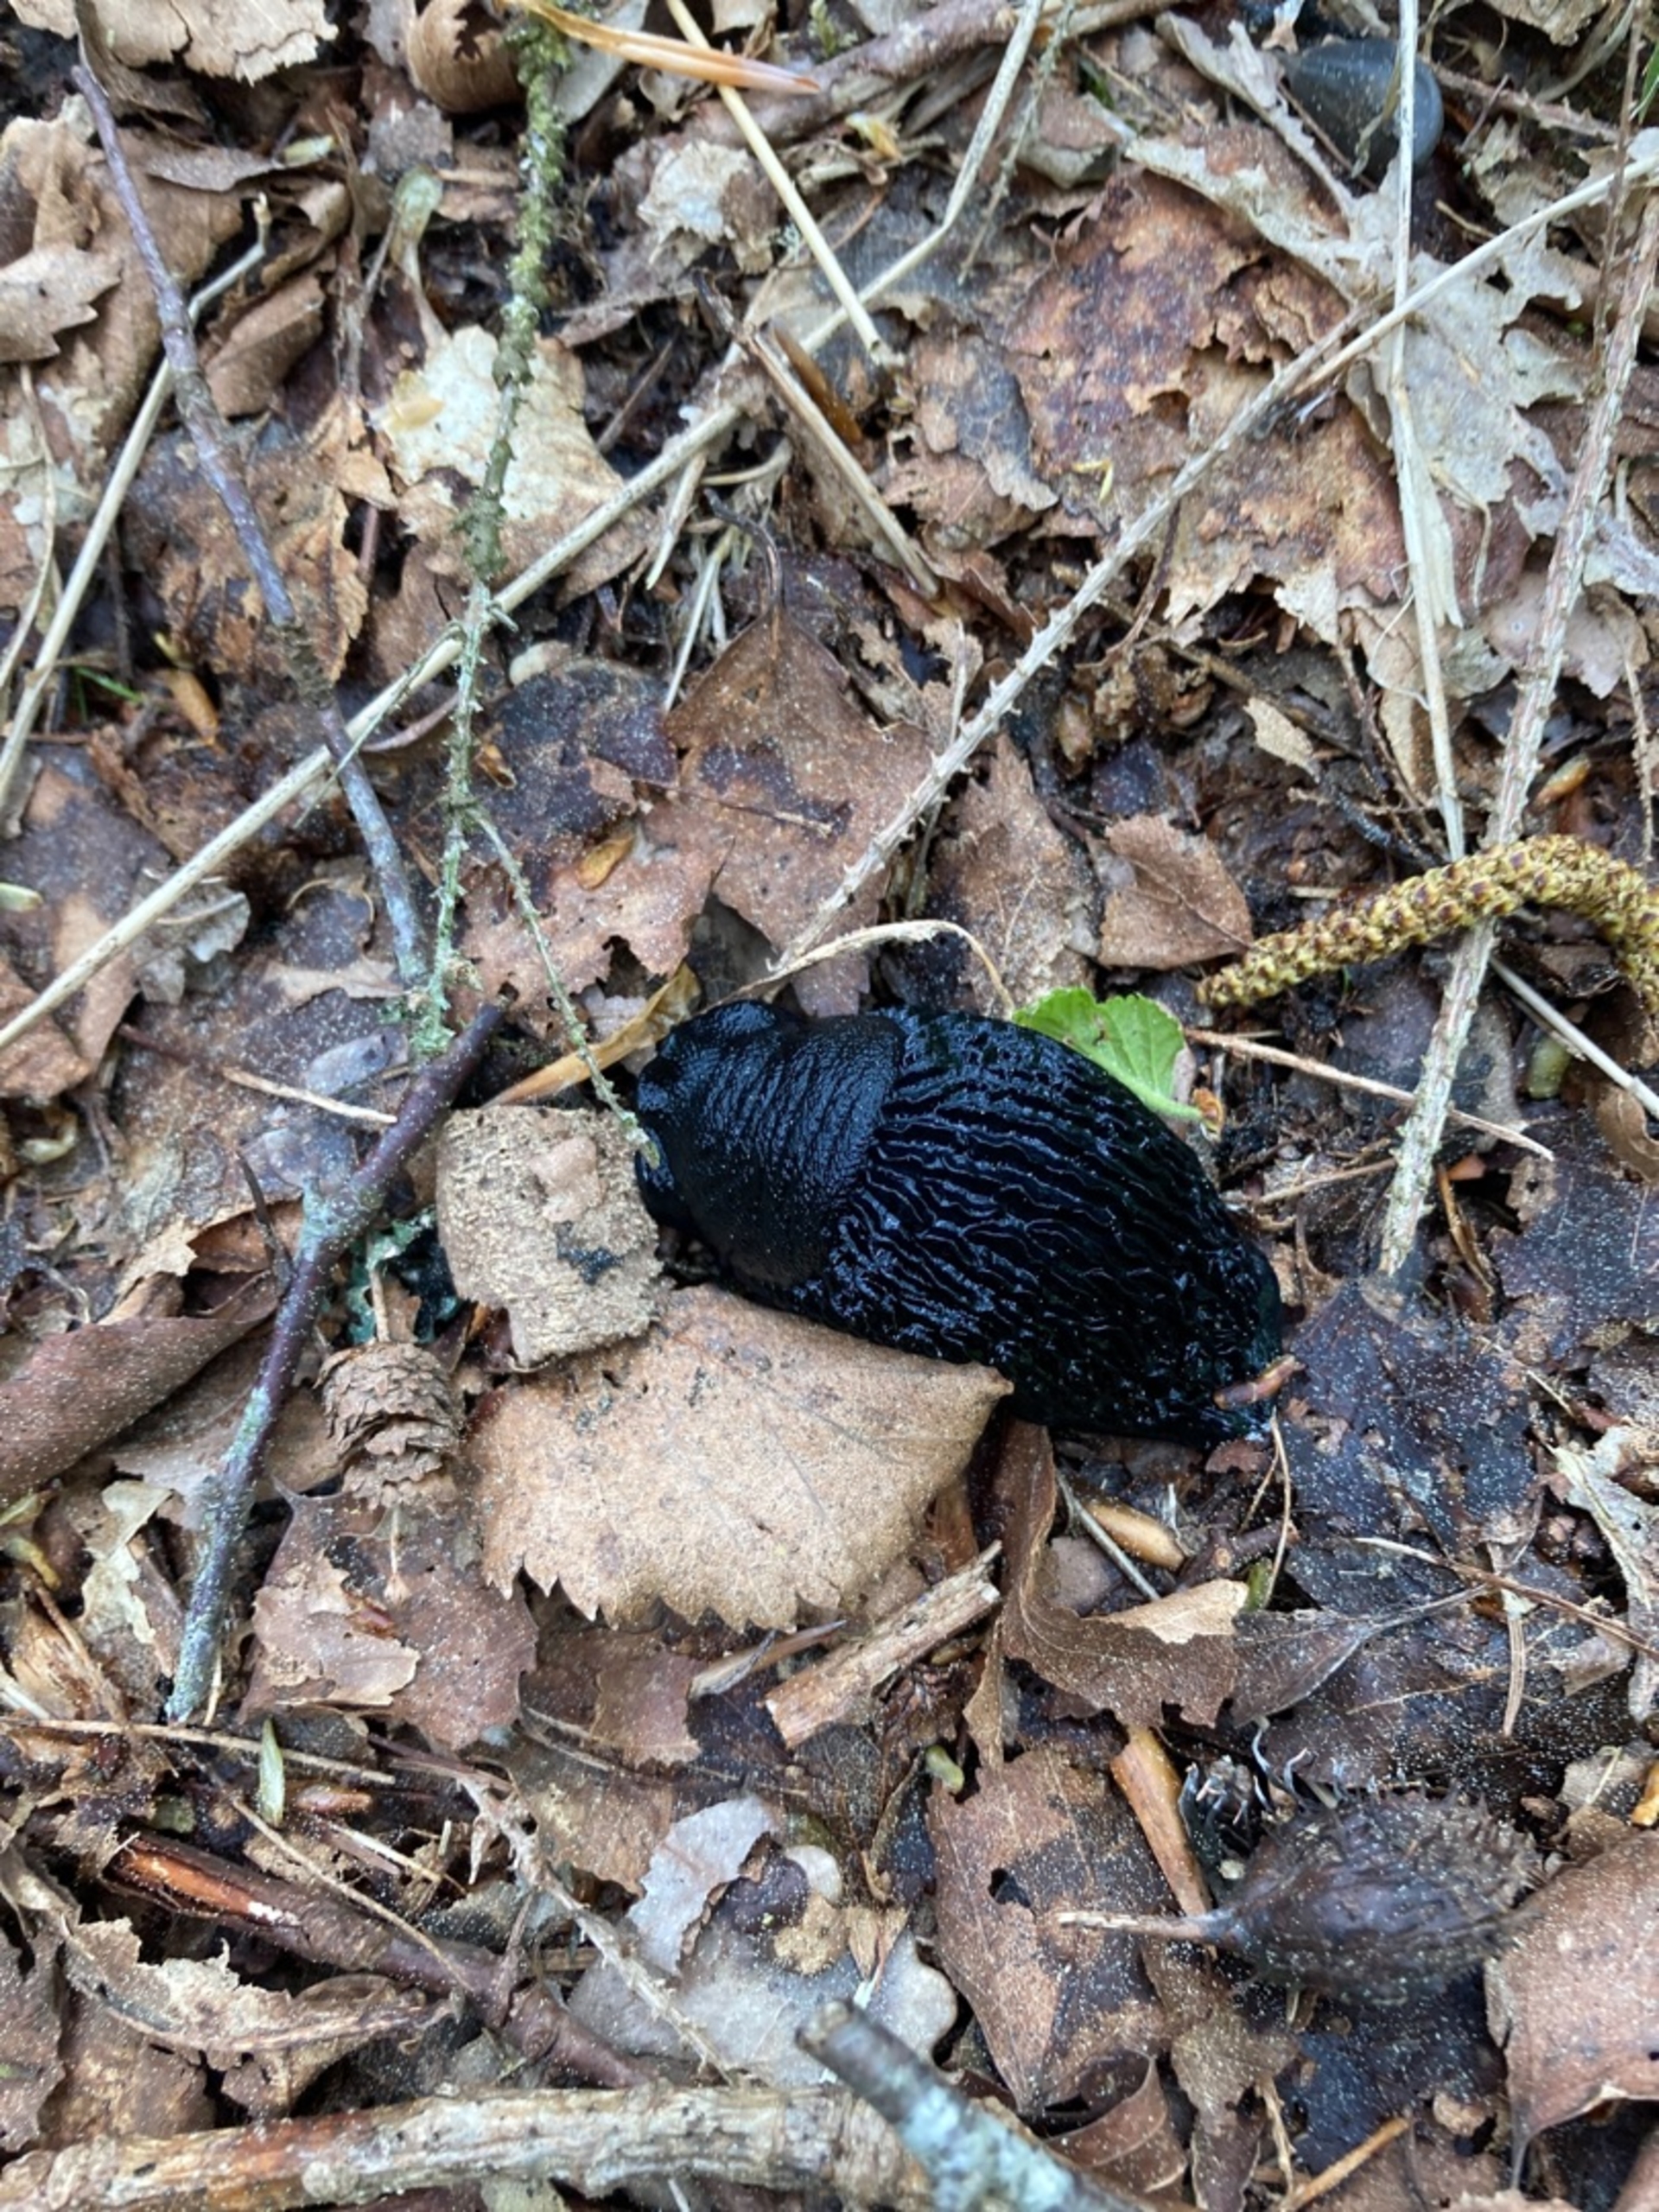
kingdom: Animalia
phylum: Mollusca
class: Gastropoda
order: Stylommatophora
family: Arionidae
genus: Arion
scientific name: Arion ater
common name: Sort skovsnegl
